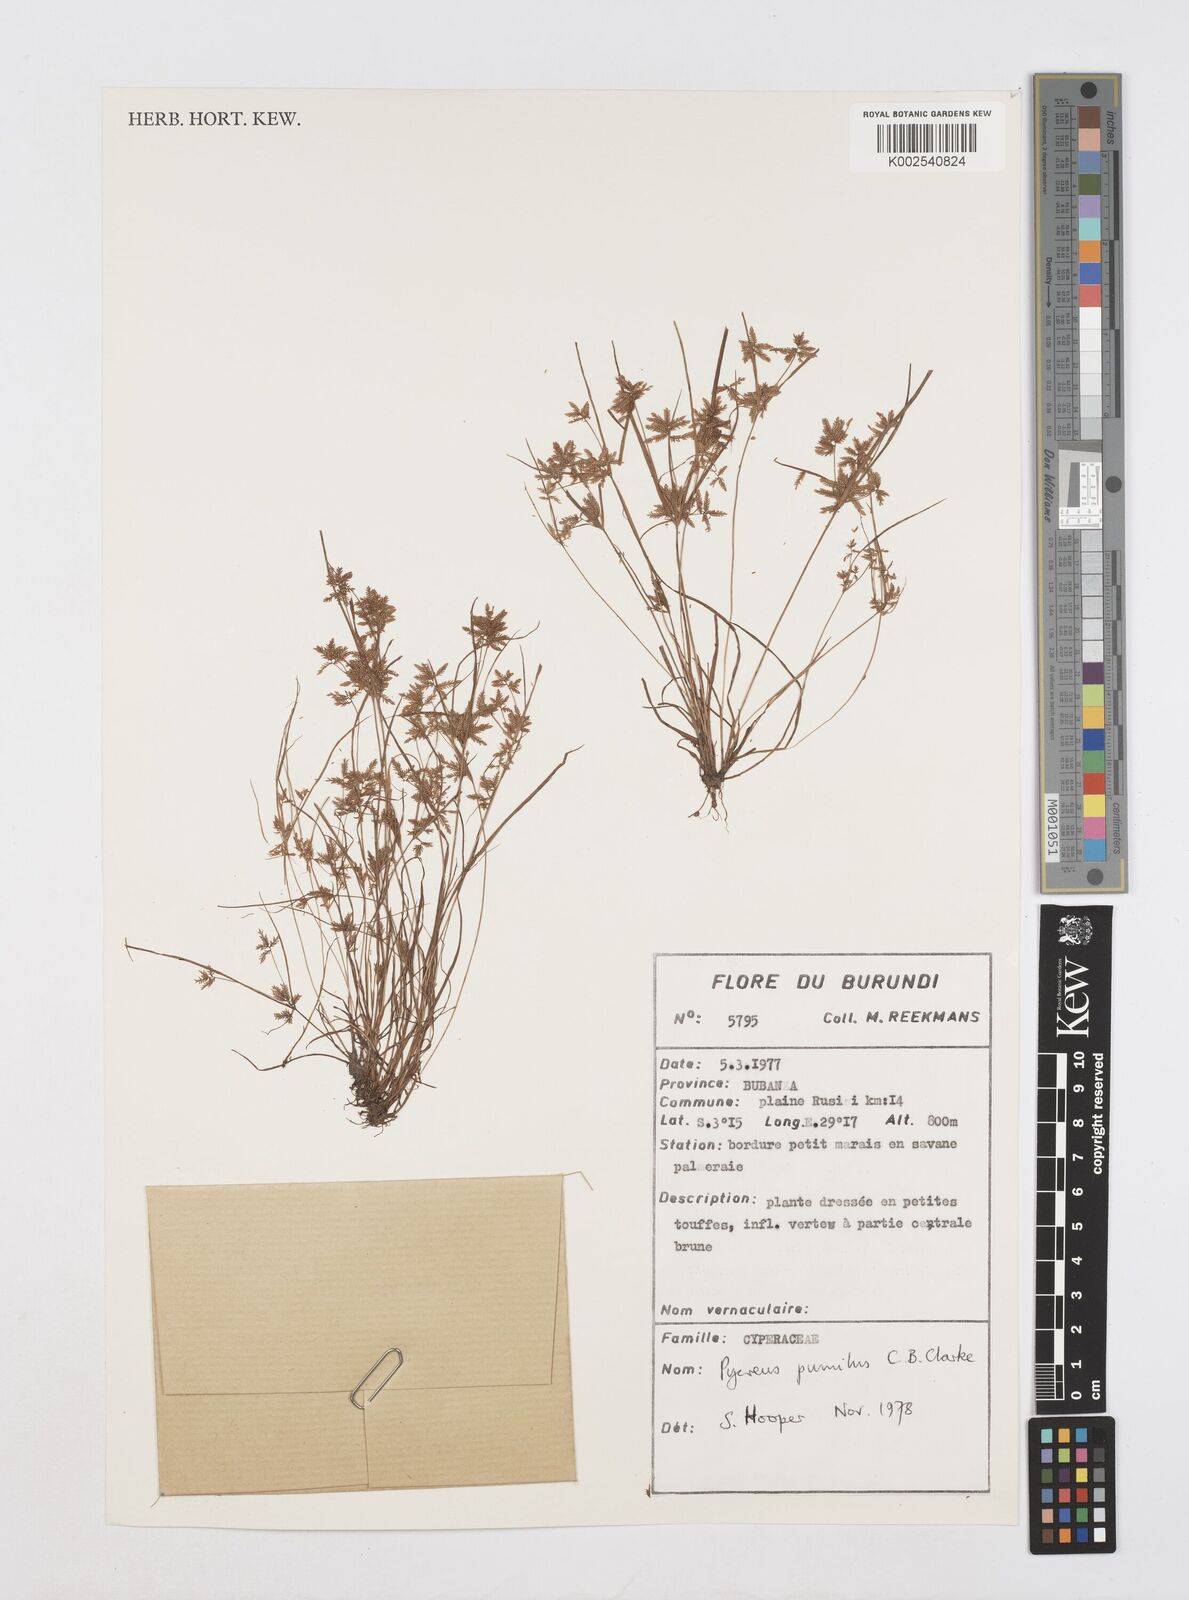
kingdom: Plantae
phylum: Tracheophyta
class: Liliopsida
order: Poales
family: Cyperaceae
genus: Cyperus
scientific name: Cyperus pumilus
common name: Low flatsedge
